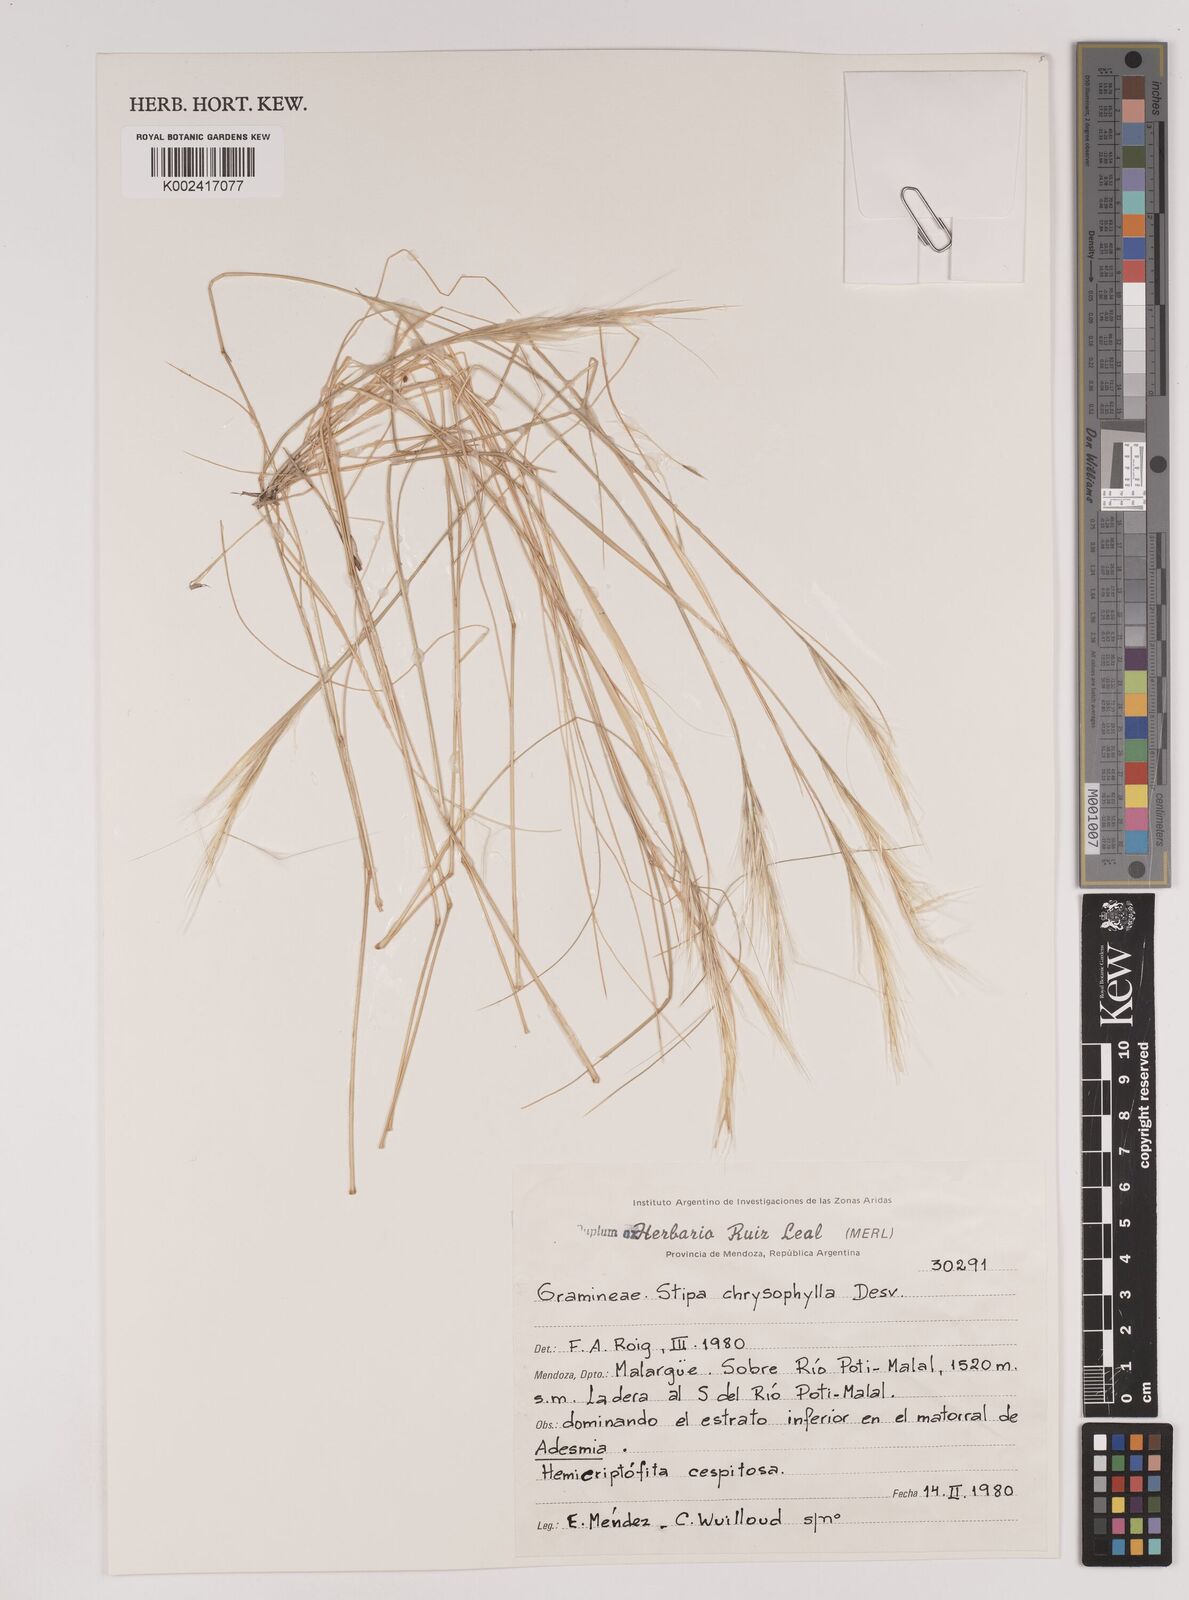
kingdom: Plantae
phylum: Tracheophyta
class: Liliopsida
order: Poales
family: Poaceae
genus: Pappostipa
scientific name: Pappostipa chrysophylla
